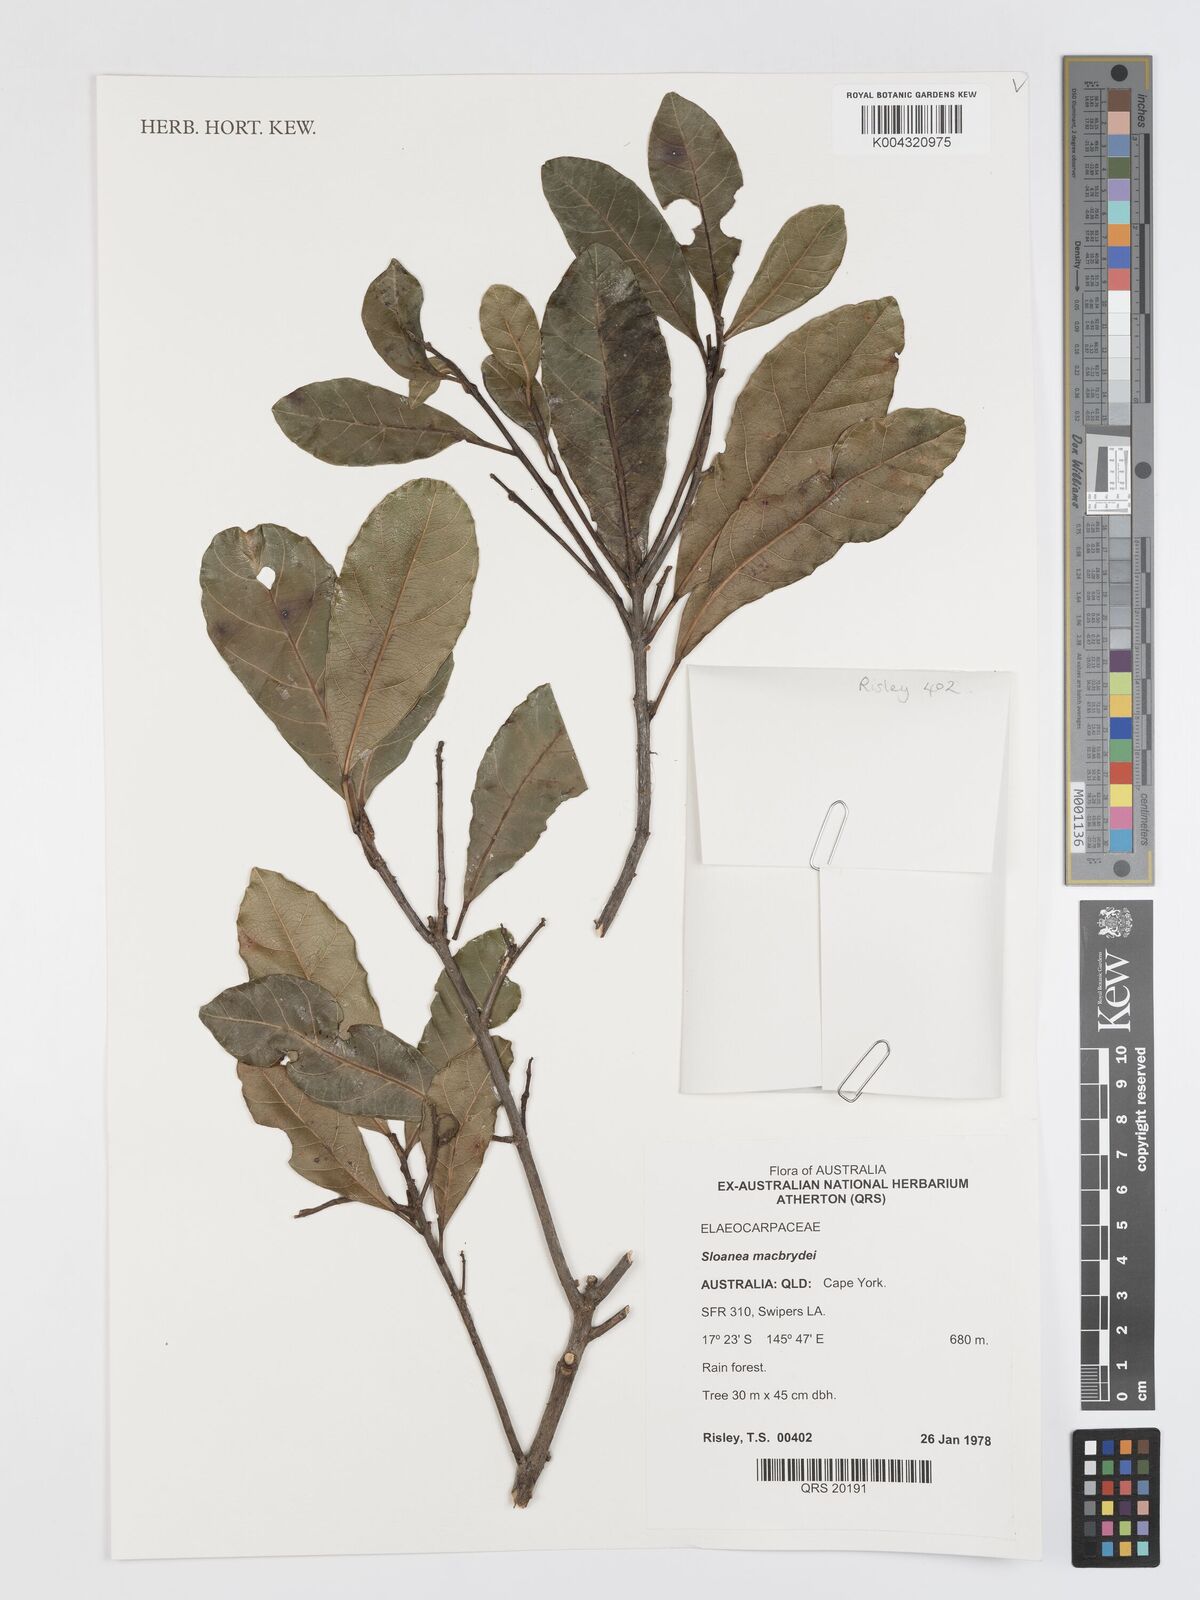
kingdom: Plantae
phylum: Tracheophyta
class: Magnoliopsida
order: Oxalidales
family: Elaeocarpaceae
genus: Sloanea
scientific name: Sloanea macbrydei
